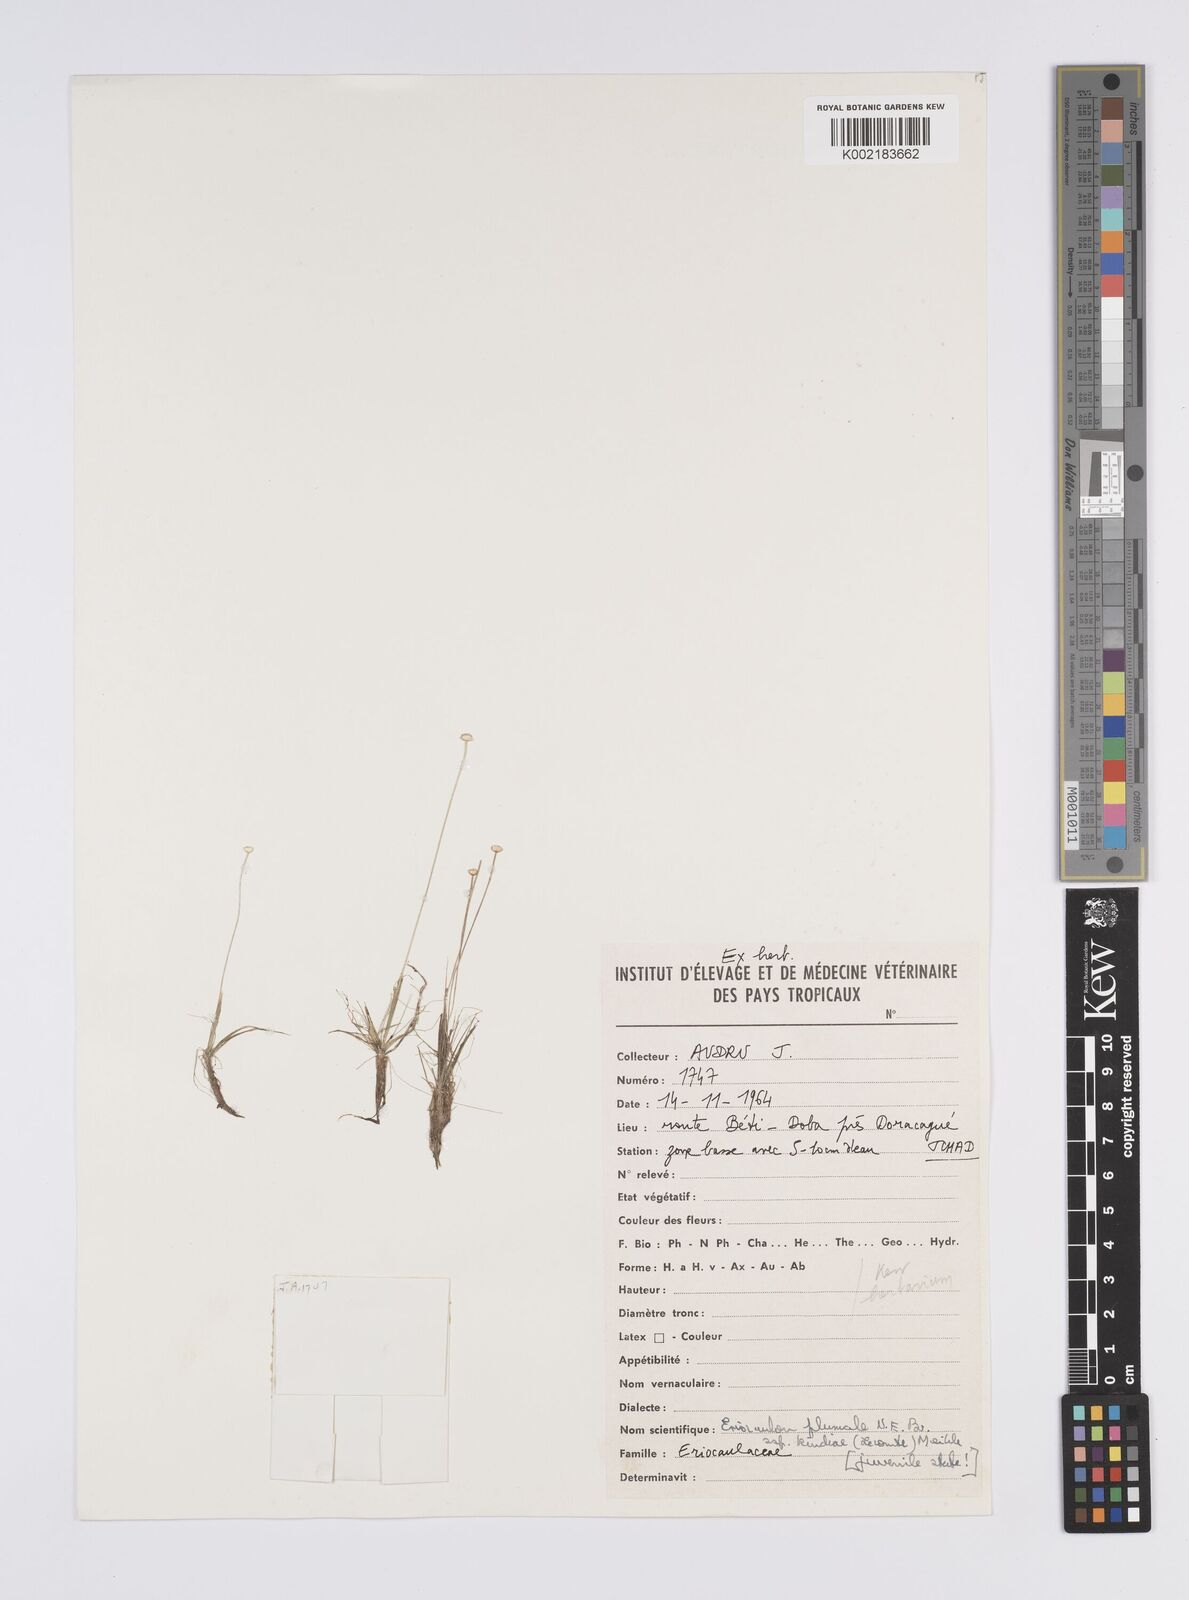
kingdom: Plantae
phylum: Tracheophyta
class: Liliopsida
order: Poales
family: Eriocaulaceae
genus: Eriocaulon
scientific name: Eriocaulon plumale
